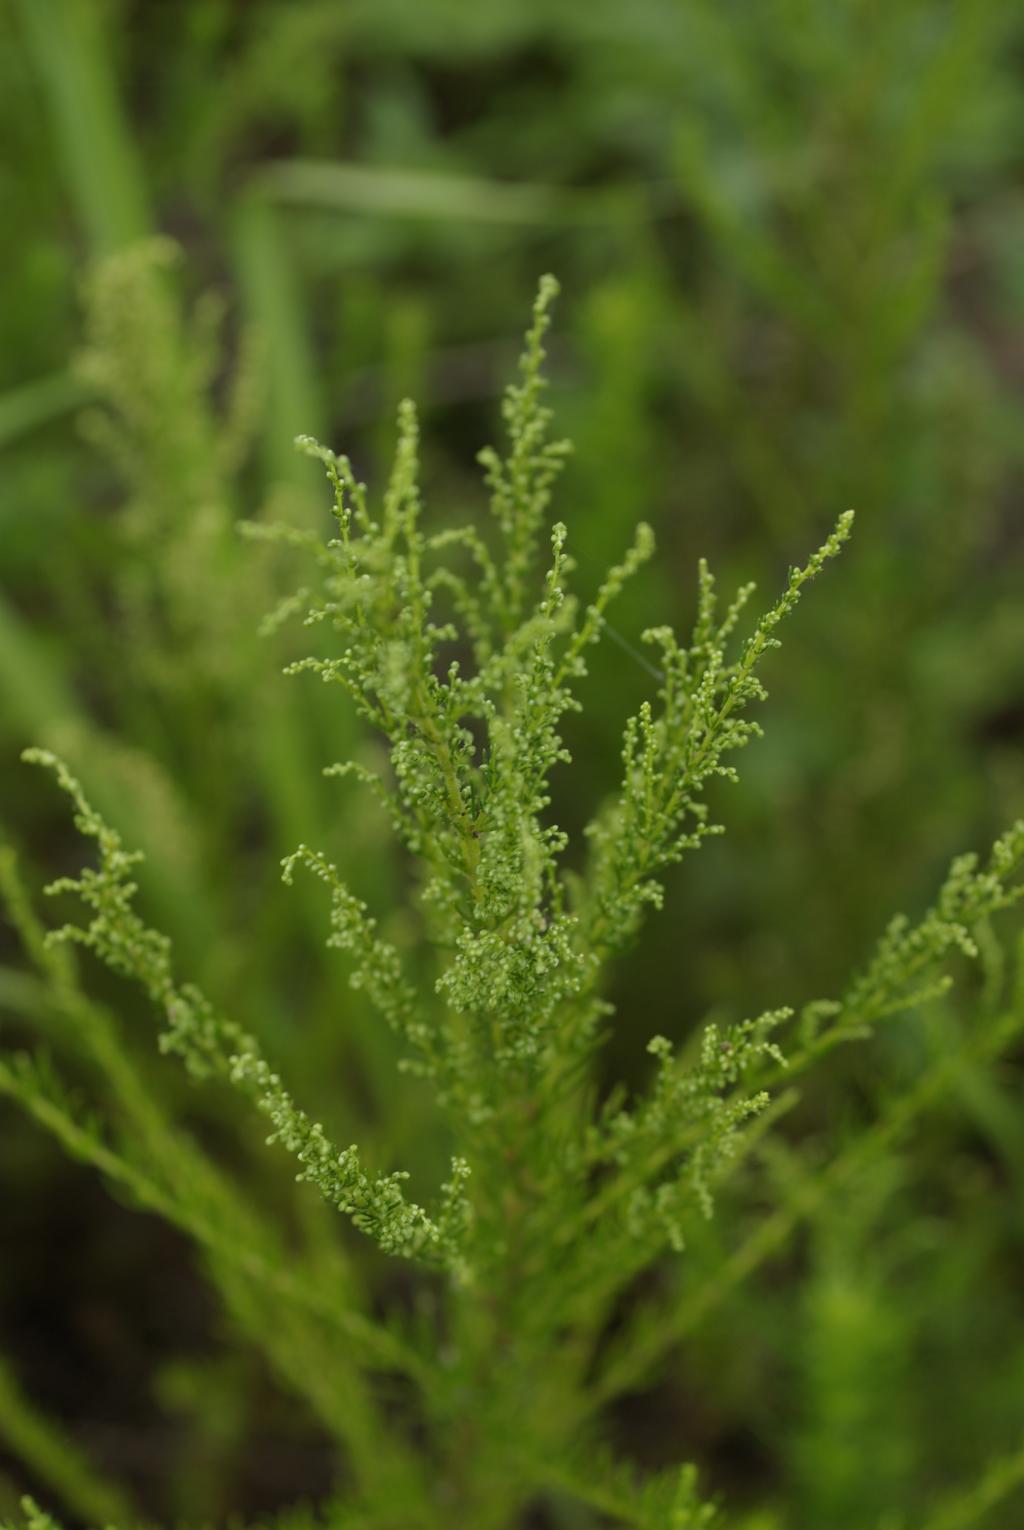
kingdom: Plantae
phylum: Tracheophyta
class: Magnoliopsida
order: Asterales
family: Asteraceae
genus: Artemisia
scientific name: Artemisia capillaris
